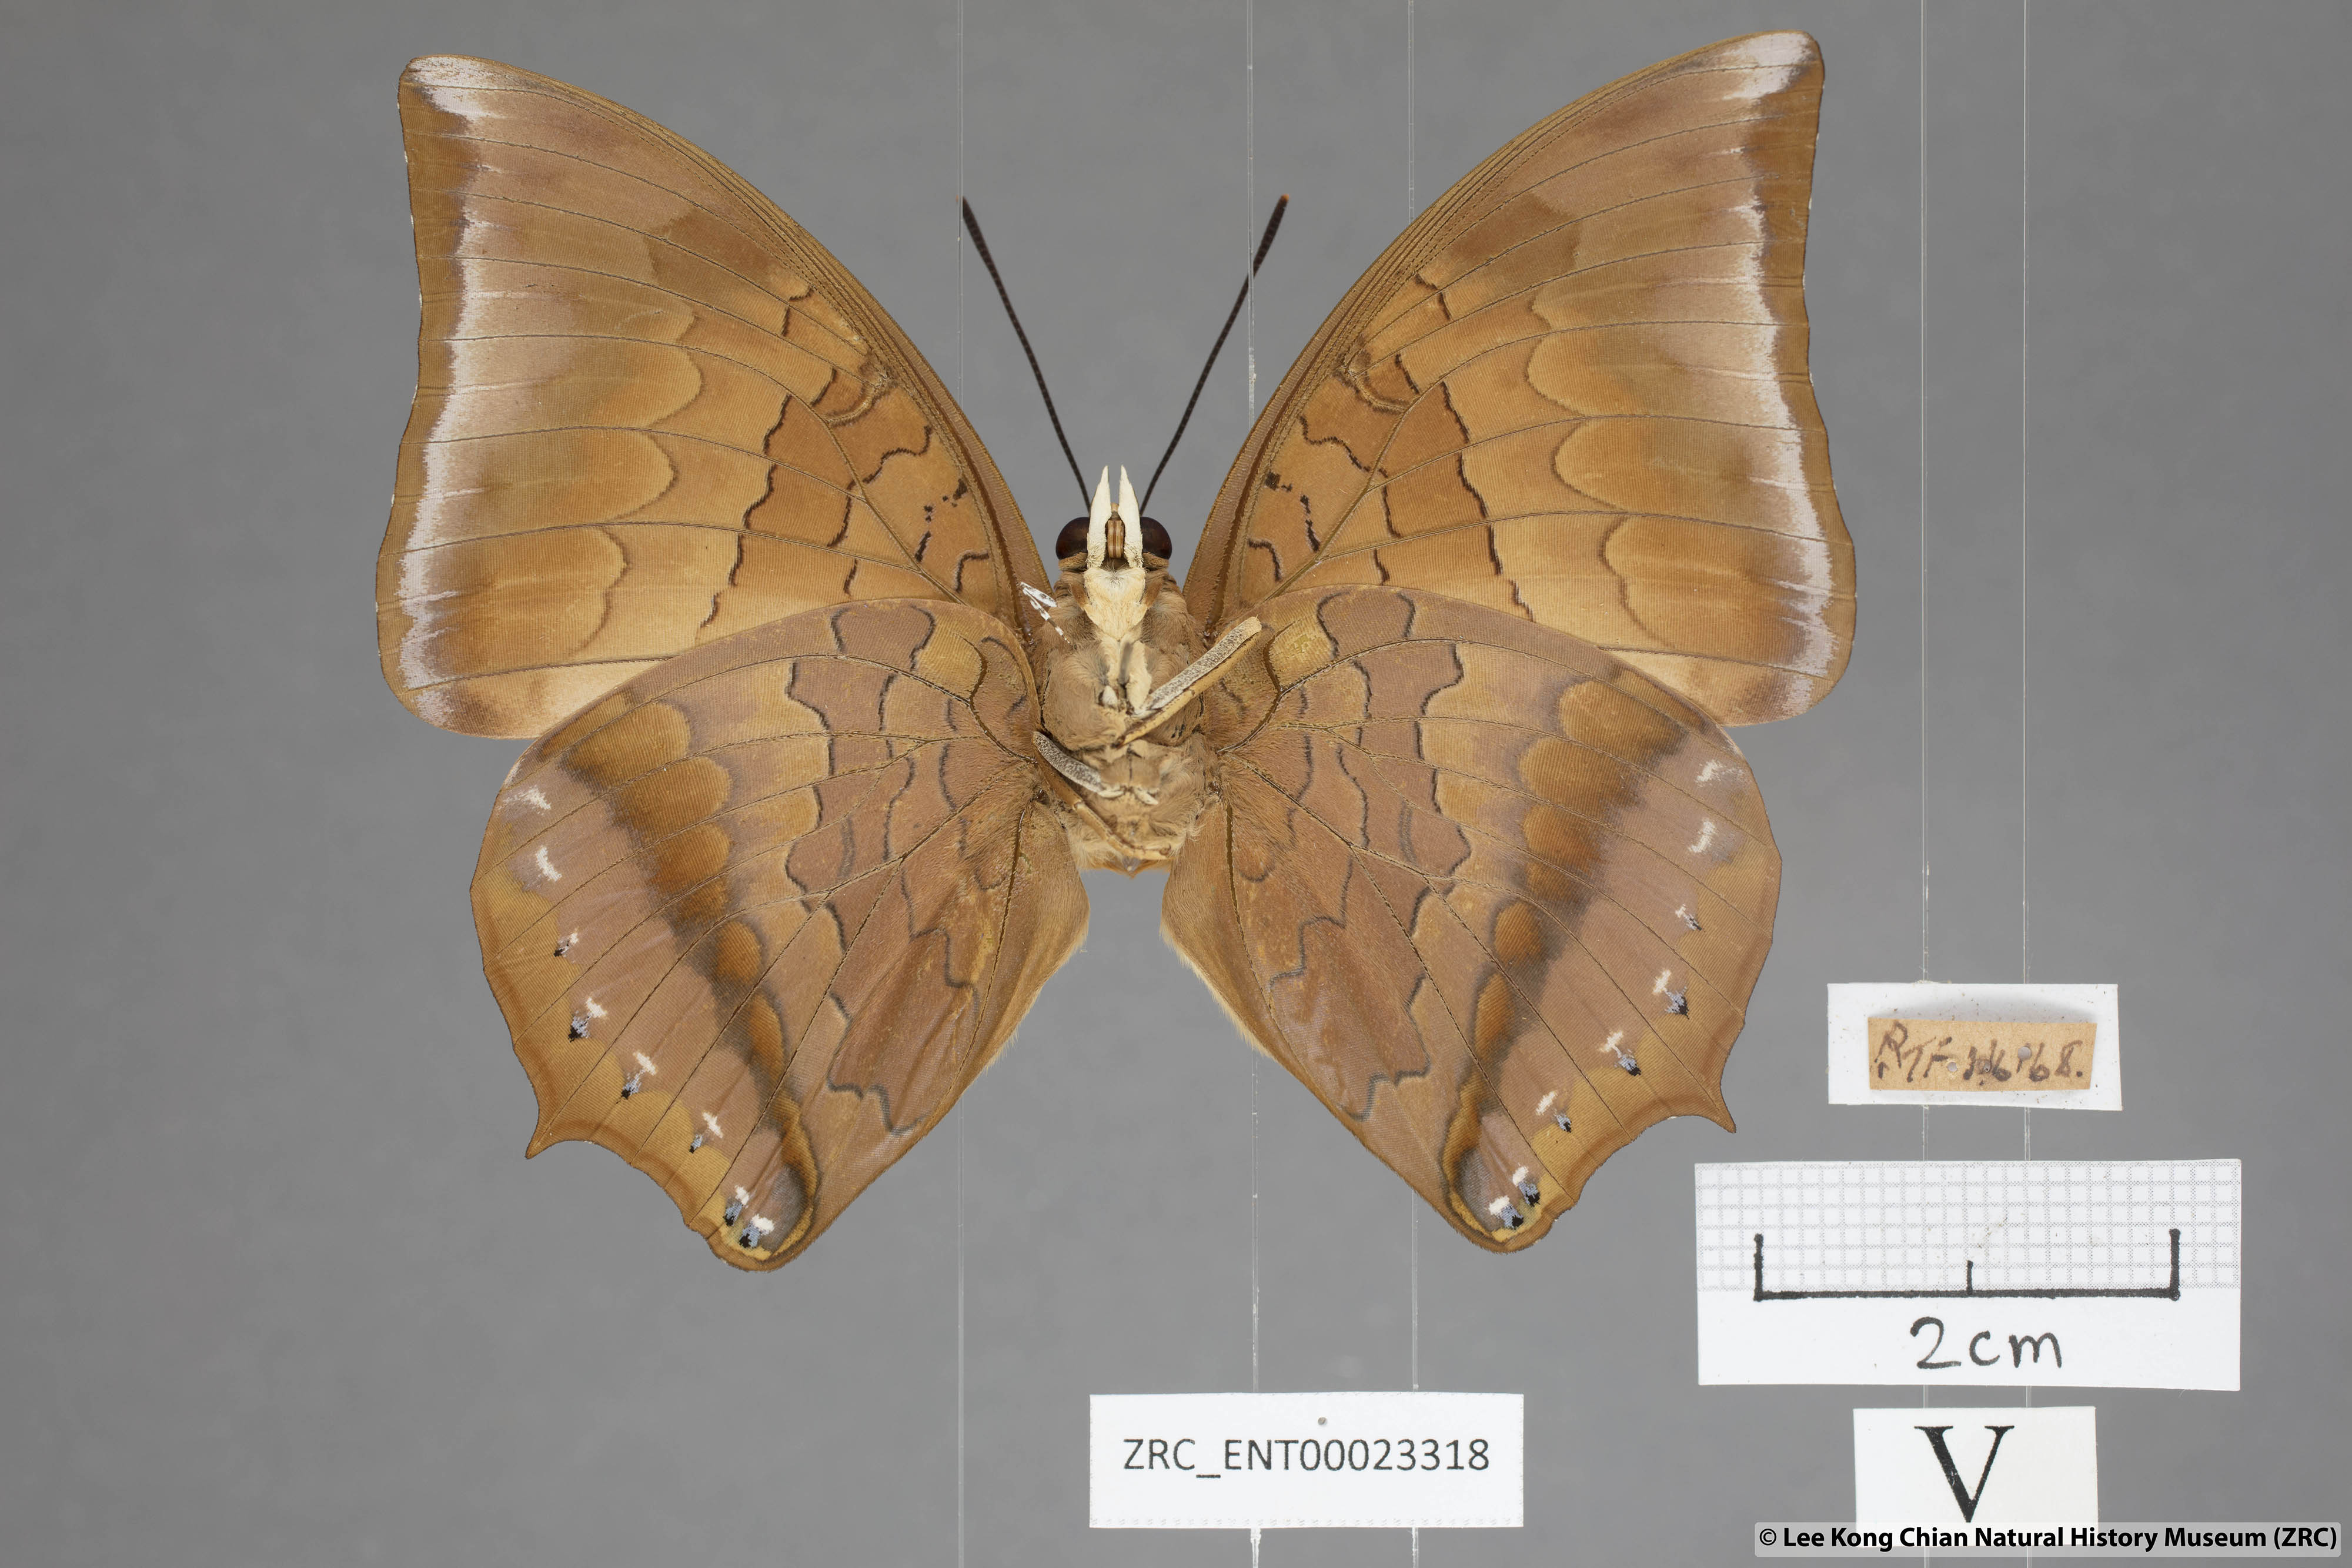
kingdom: Animalia
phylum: Arthropoda
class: Insecta
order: Lepidoptera
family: Nymphalidae
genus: Charaxes
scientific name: Charaxes bernardus
